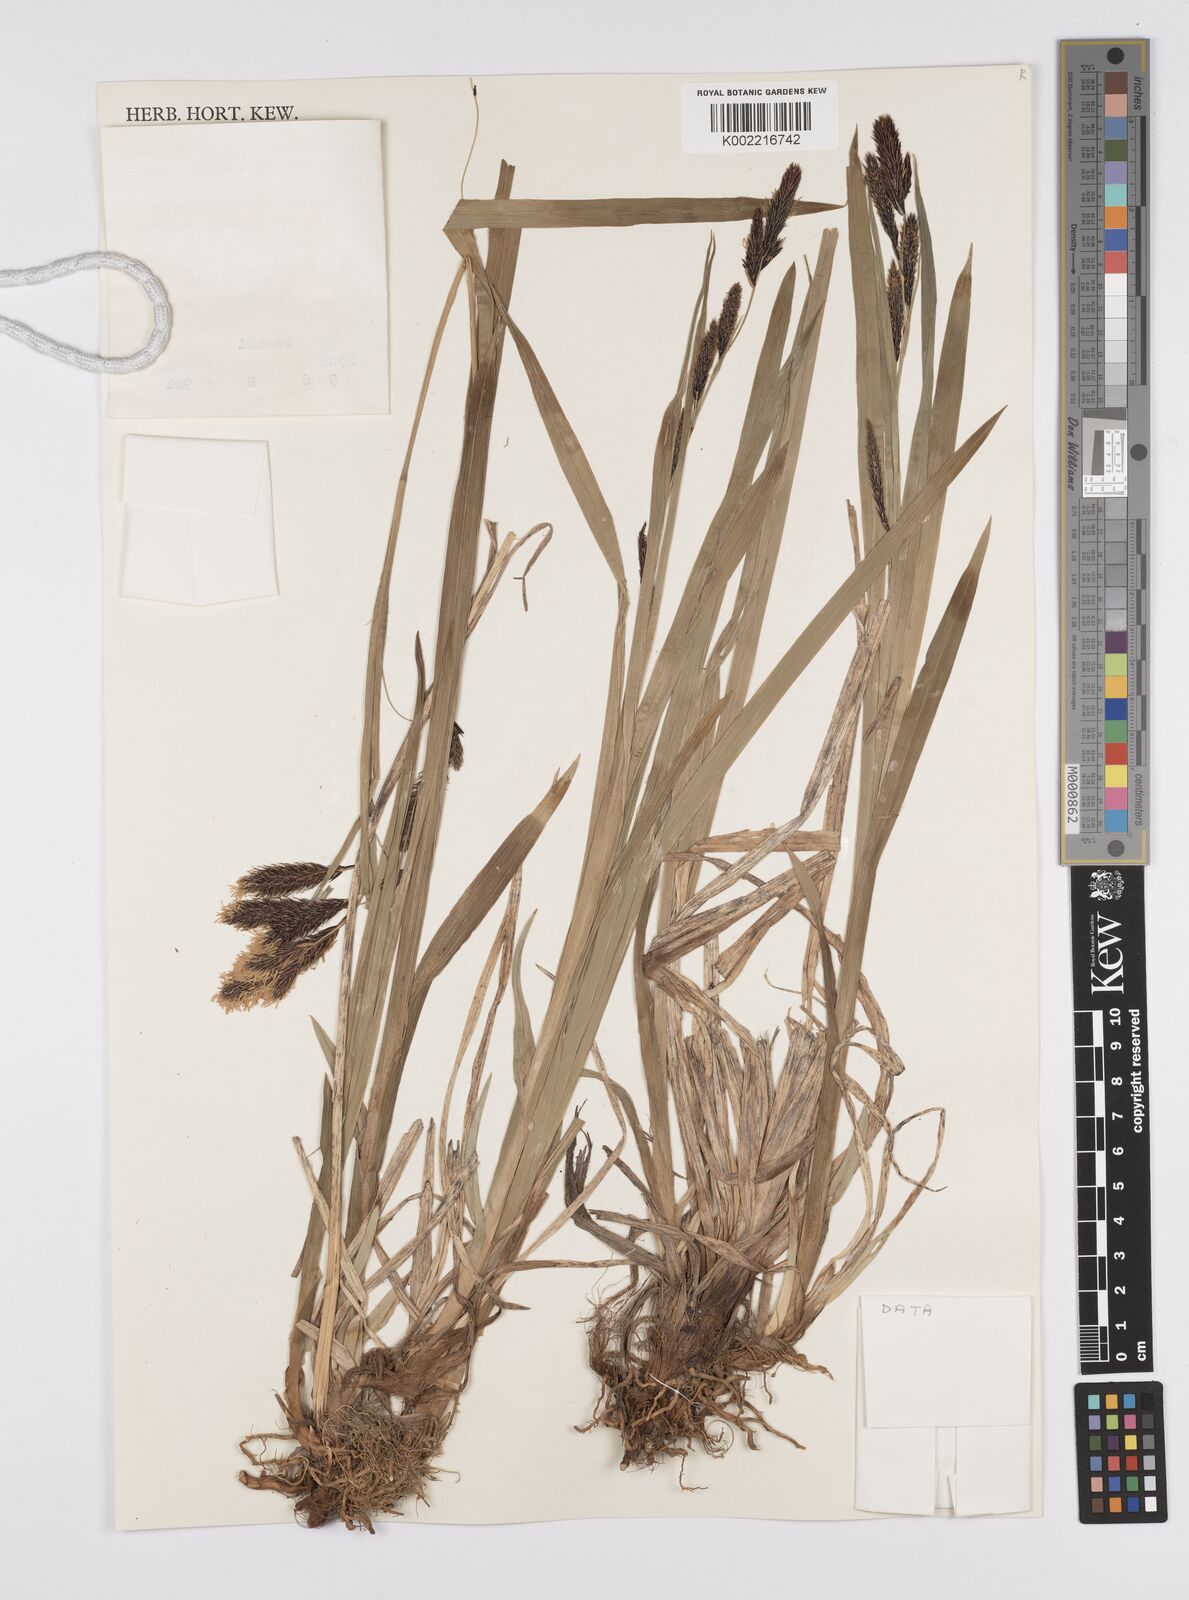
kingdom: Plantae
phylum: Tracheophyta
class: Liliopsida
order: Poales
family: Cyperaceae
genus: Carex
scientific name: Carex cruenta
